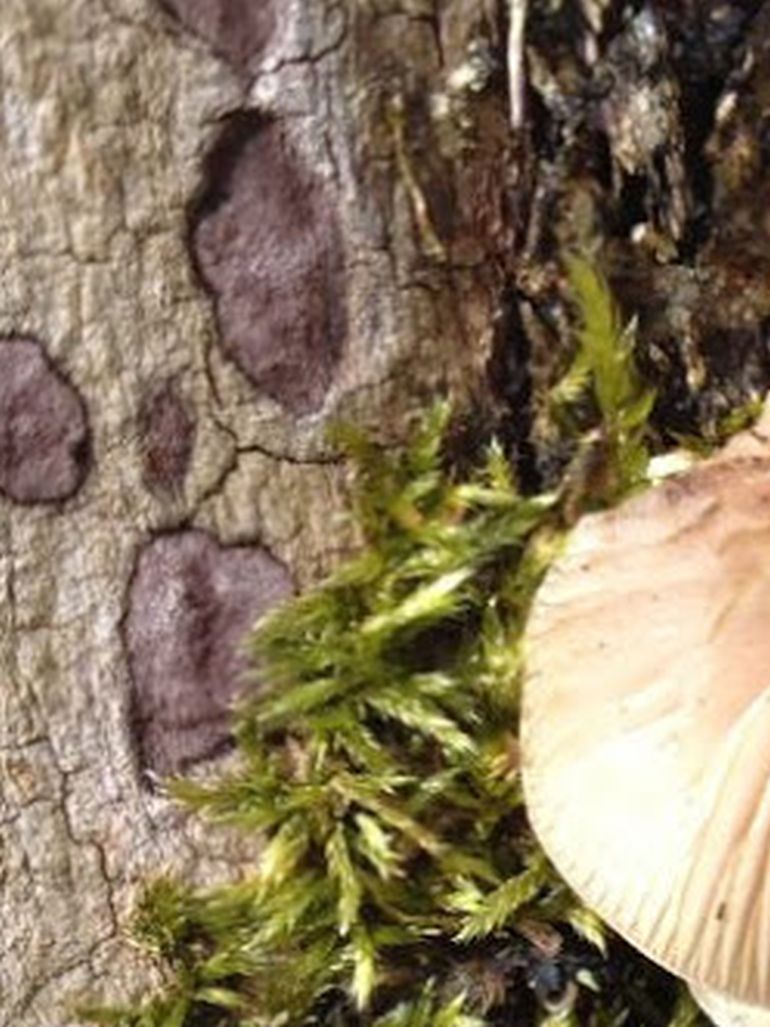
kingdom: Fungi
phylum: Ascomycota
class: Sordariomycetes
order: Xylariales
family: Hypoxylaceae
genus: Hypoxylon
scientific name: Hypoxylon petriniae
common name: nedsænket kulbær
